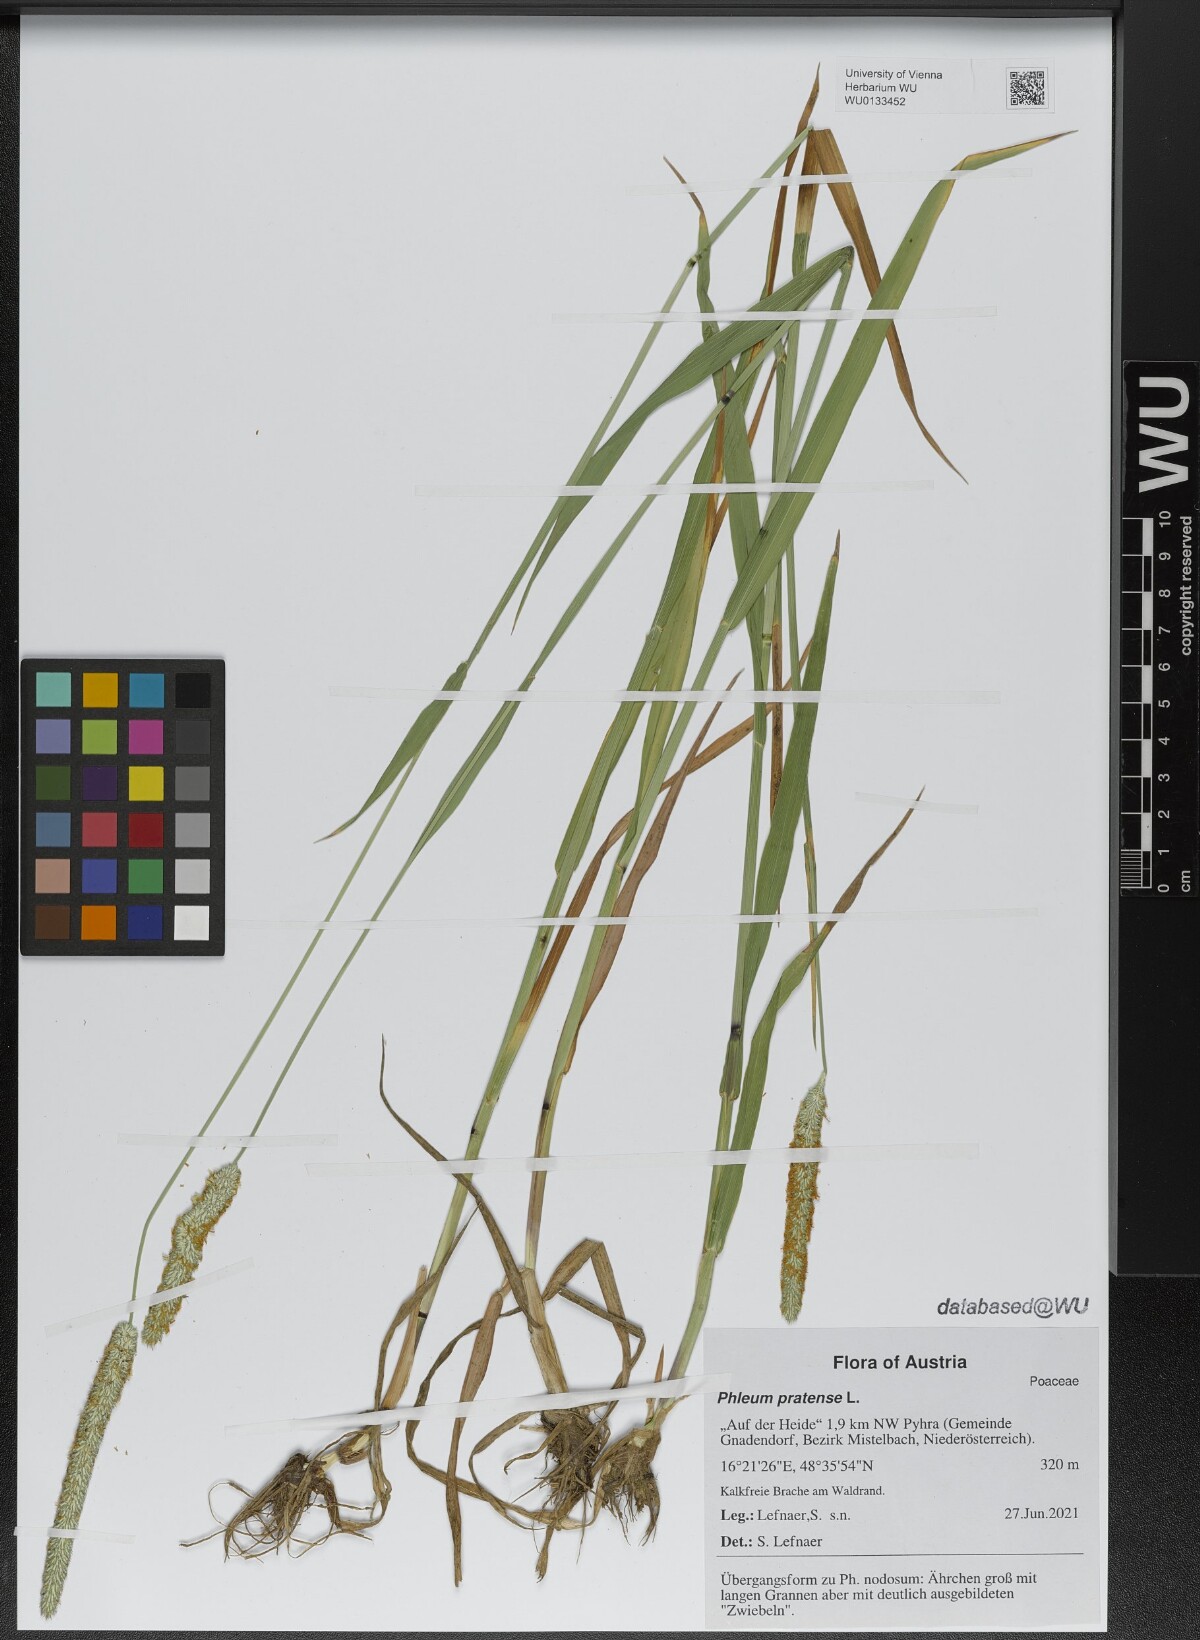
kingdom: Plantae
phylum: Tracheophyta
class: Liliopsida
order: Poales
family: Poaceae
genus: Phleum
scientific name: Phleum pratense
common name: Timothy grass
